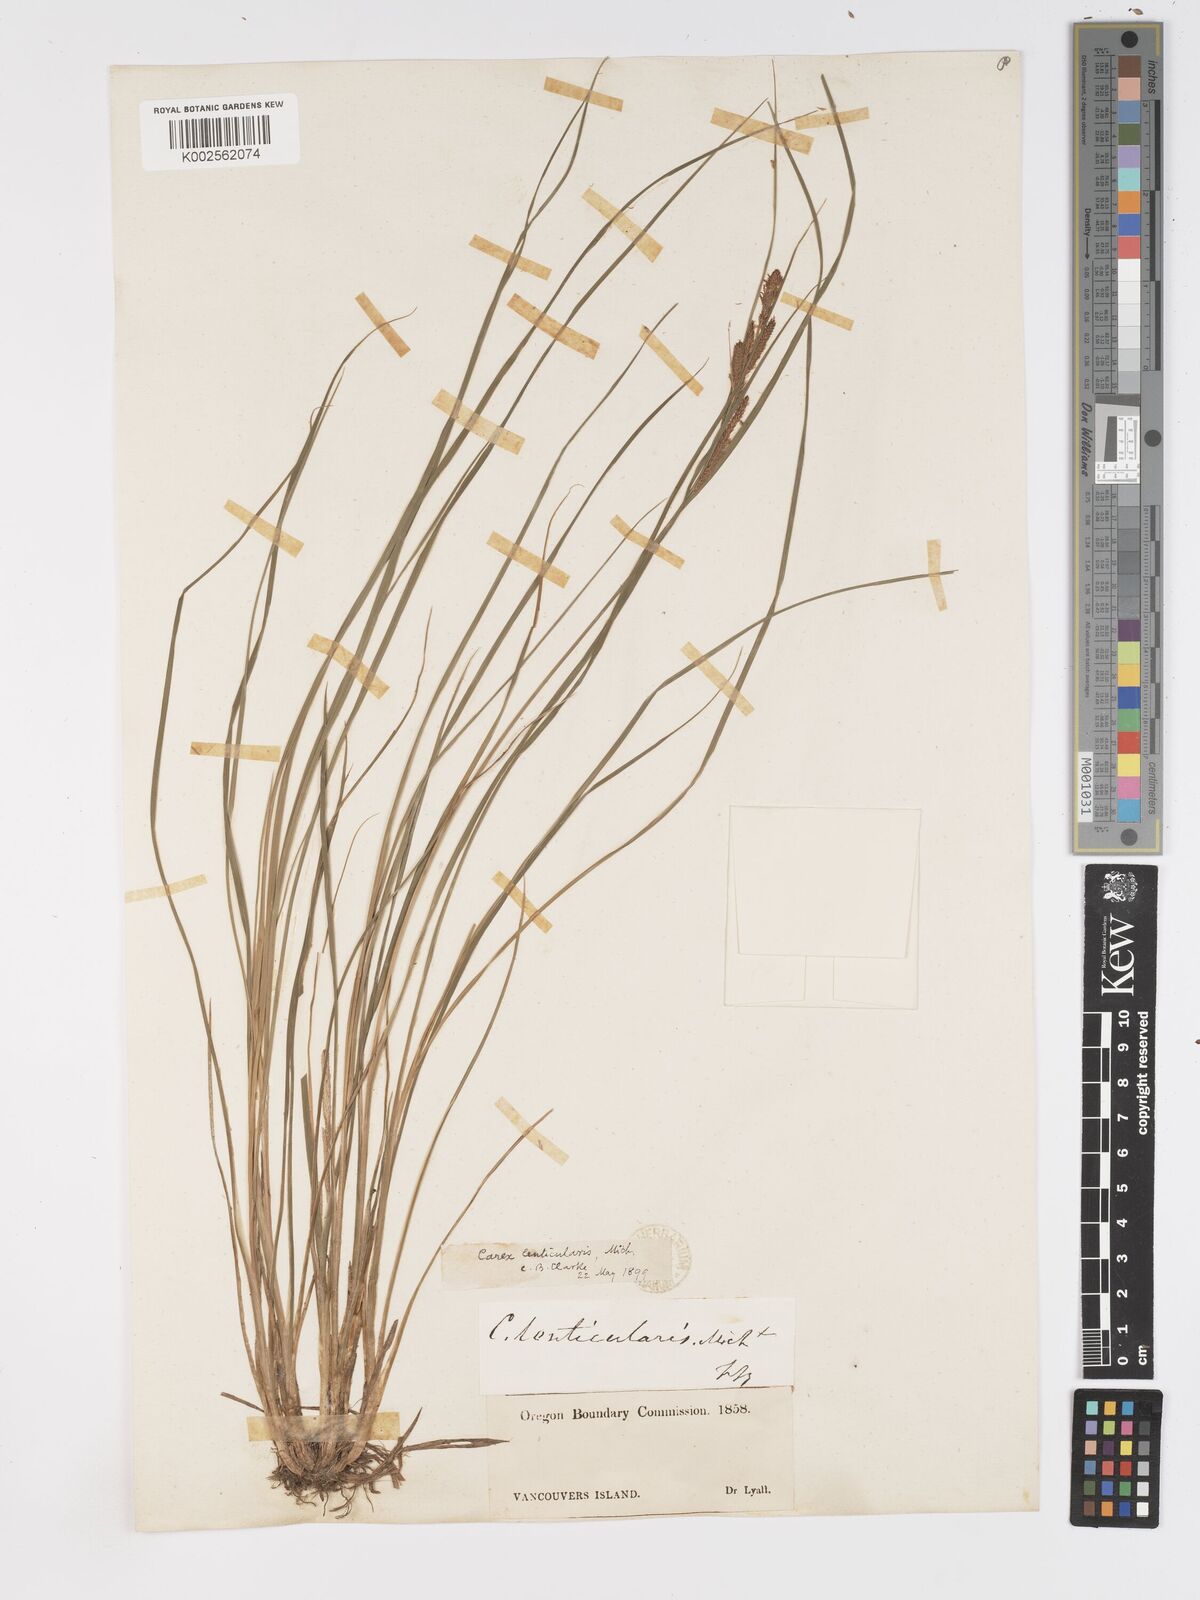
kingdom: Plantae
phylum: Tracheophyta
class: Liliopsida
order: Poales
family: Cyperaceae
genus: Carex
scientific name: Carex lenticularis
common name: Lakeshore sedge
